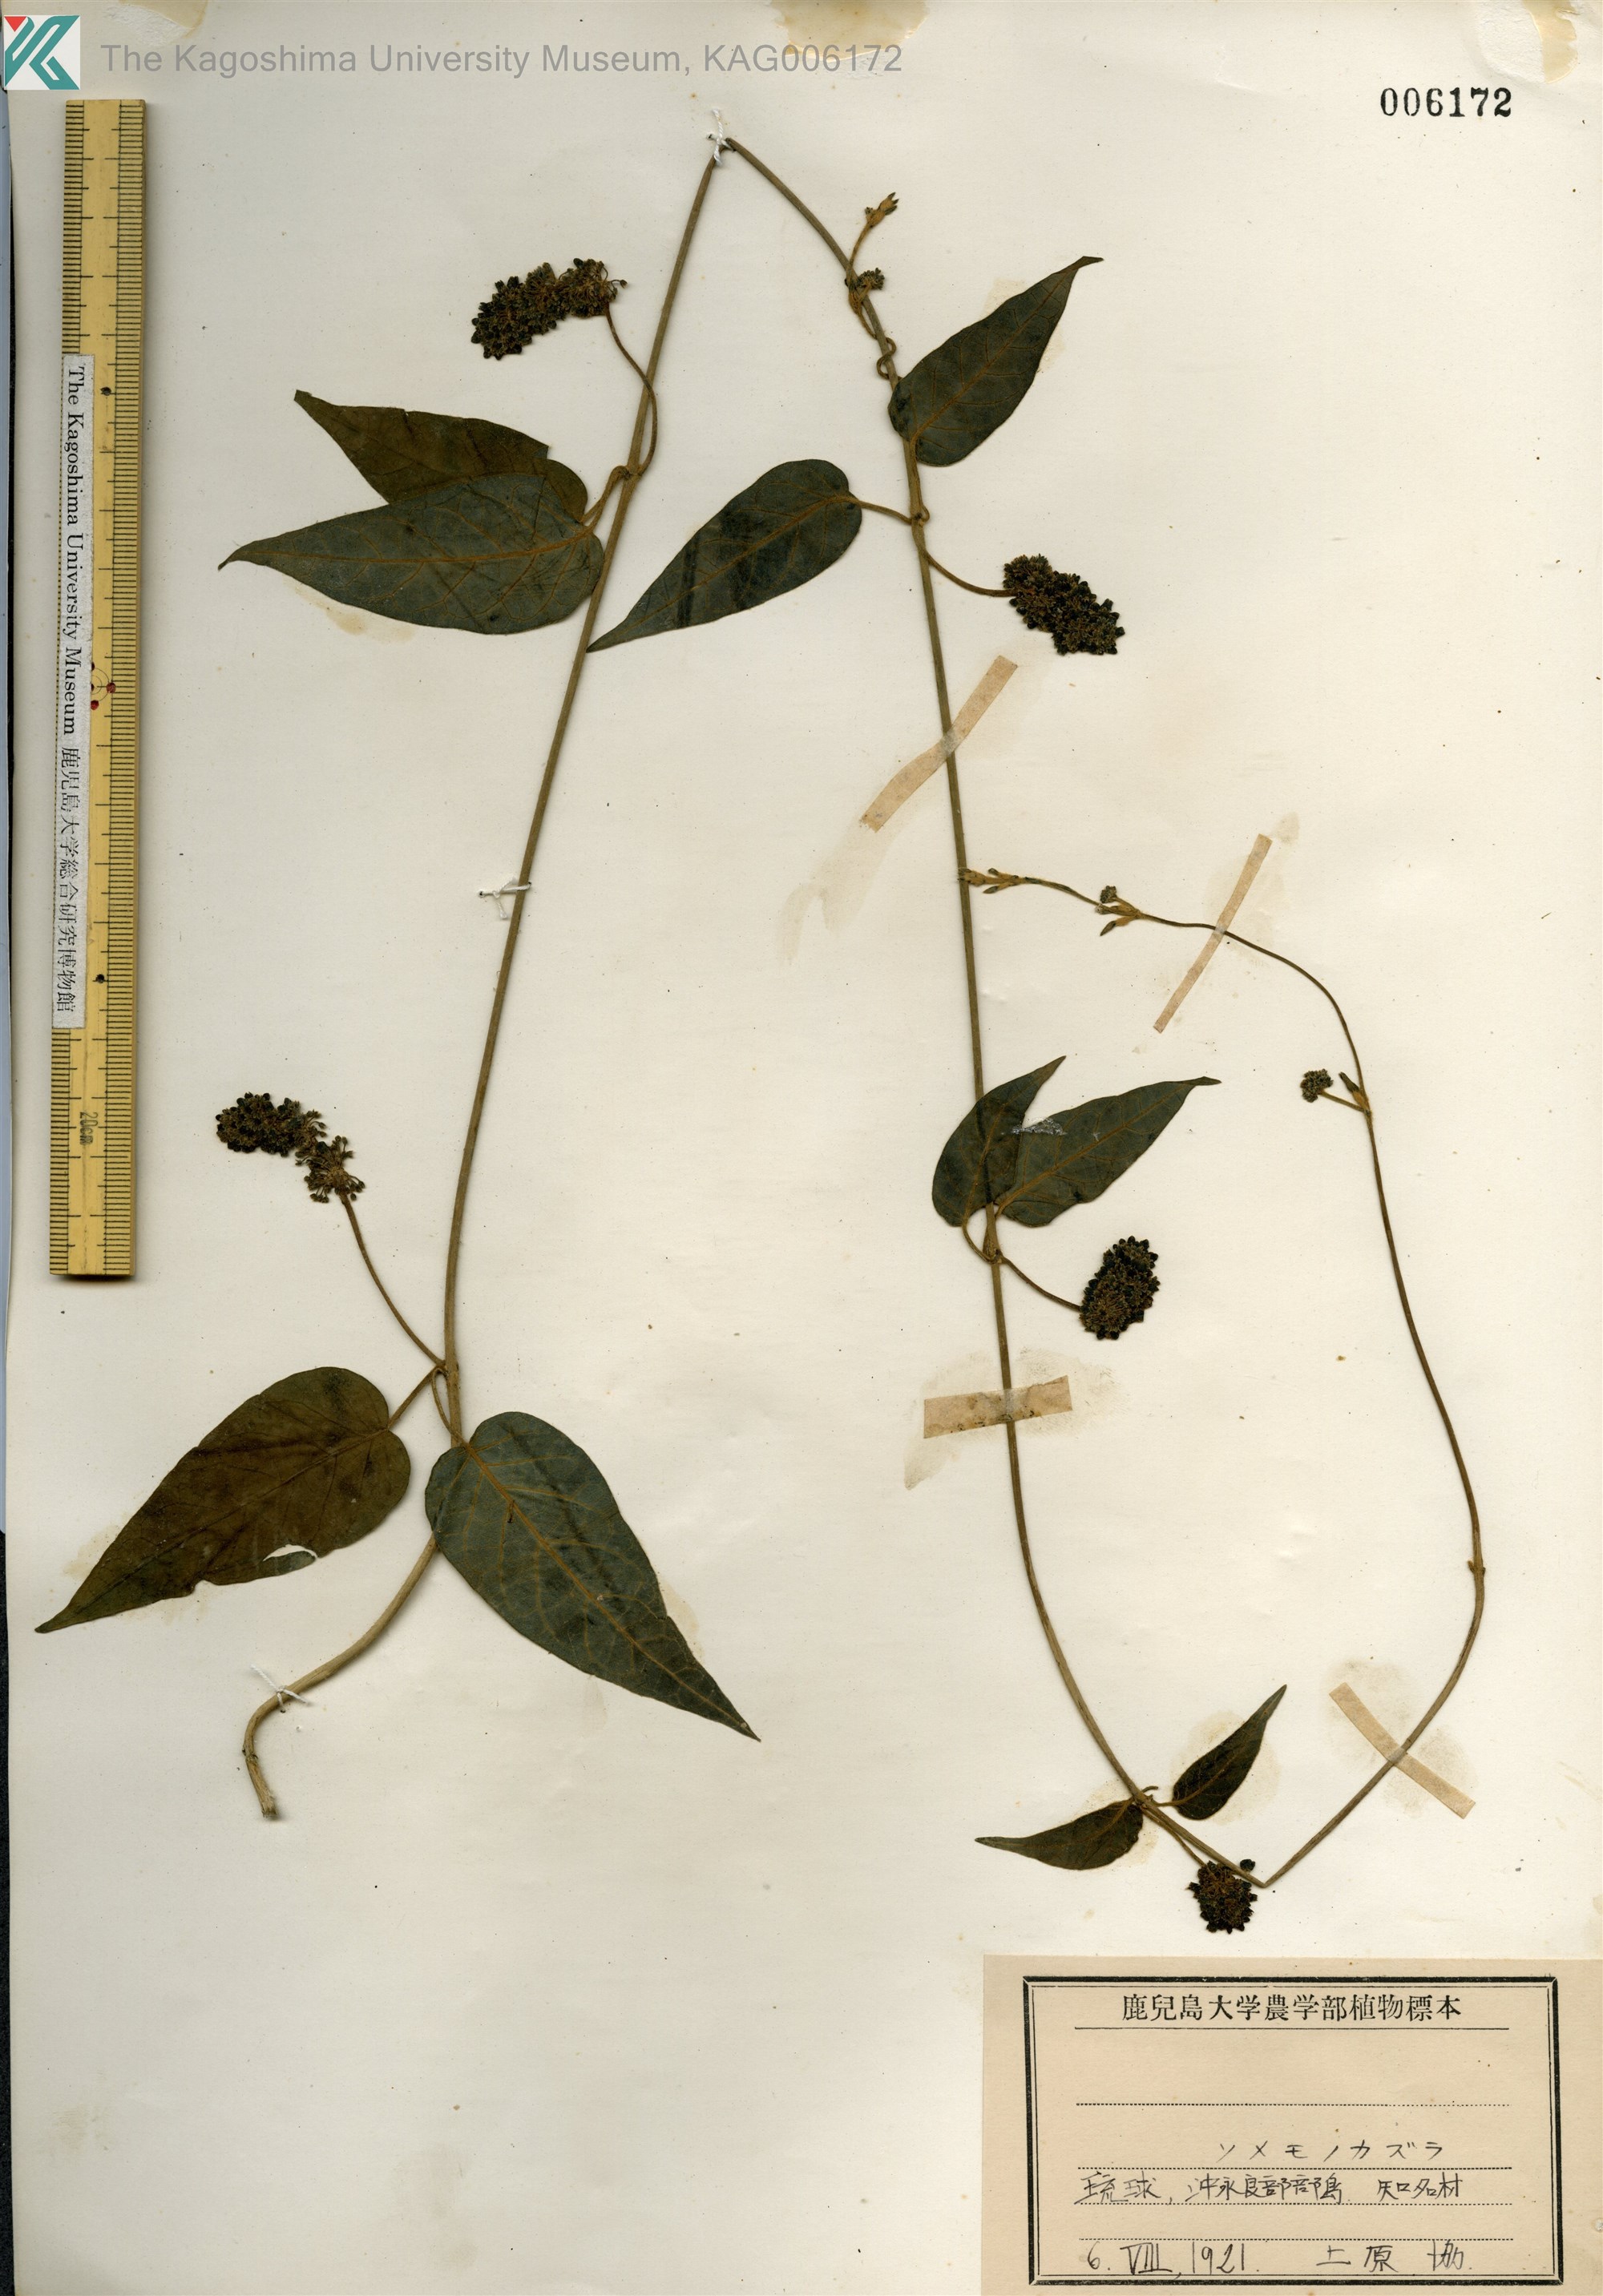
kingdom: Plantae
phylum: Tracheophyta
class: Magnoliopsida
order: Gentianales
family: Apocynaceae
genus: Marsdenia
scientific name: Marsdenia tinctoria
